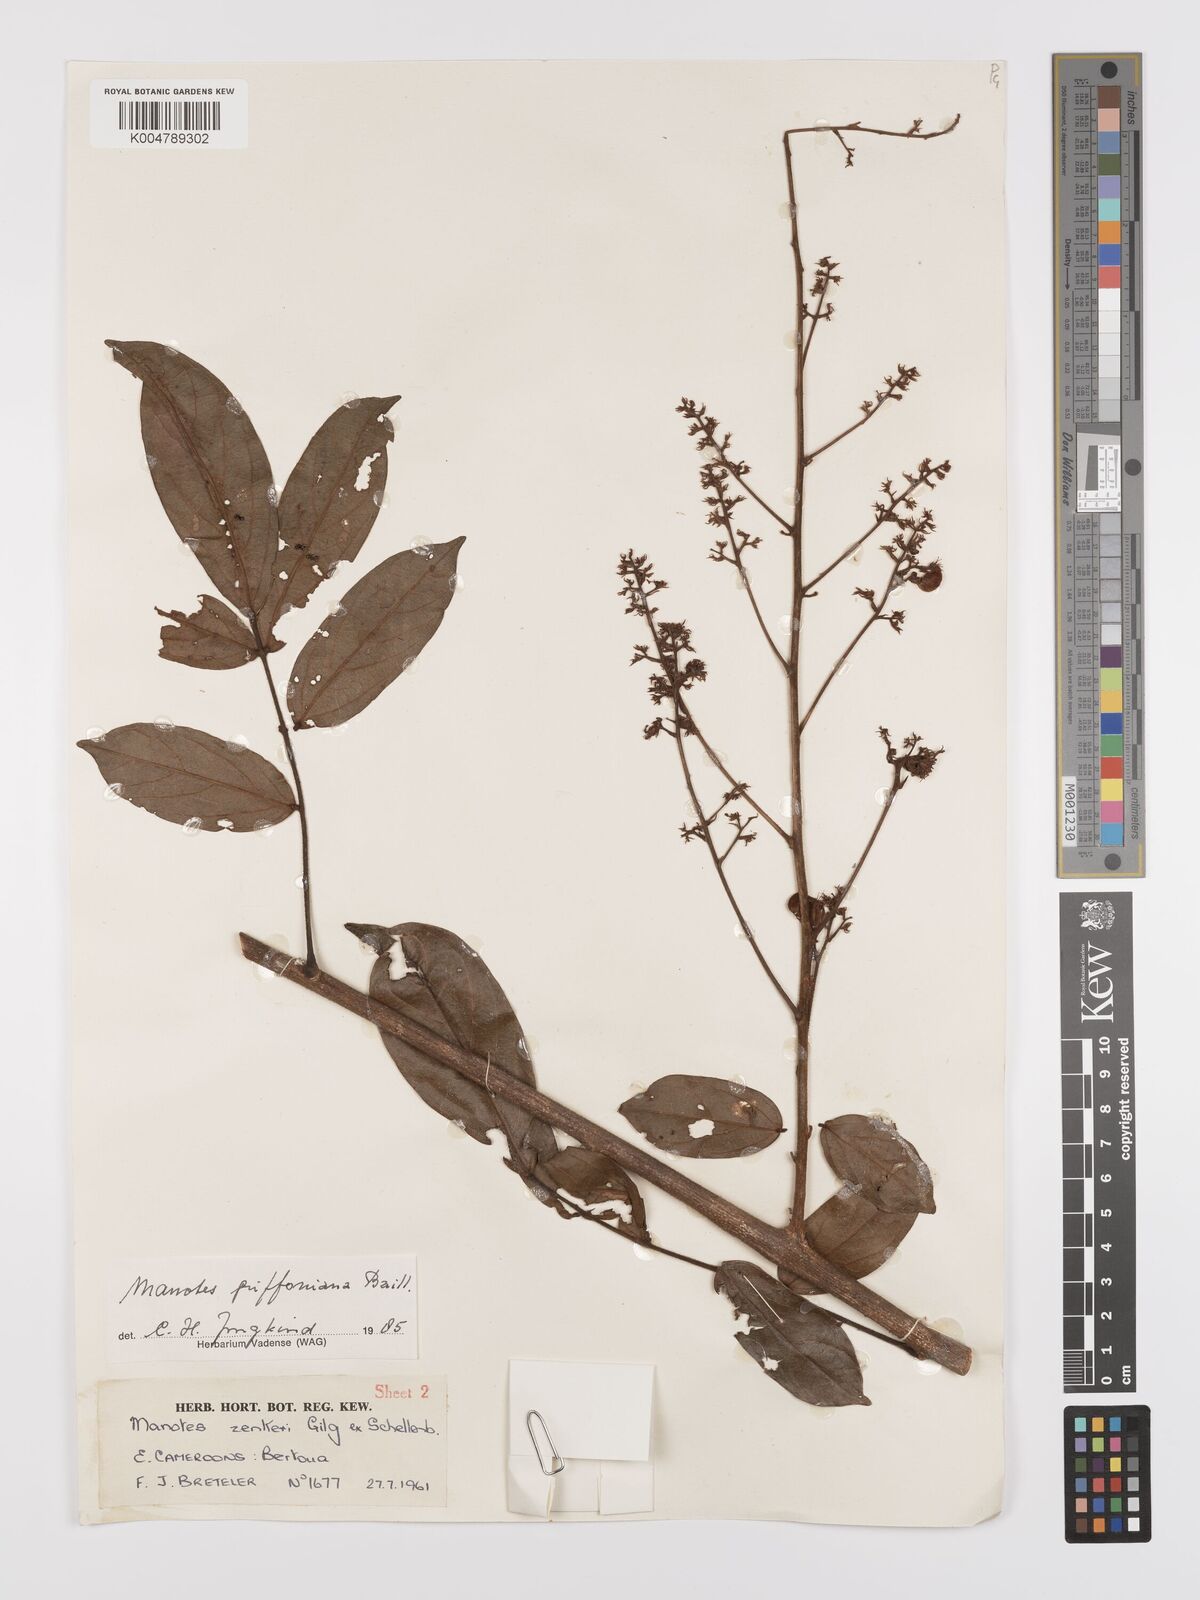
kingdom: Plantae
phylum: Tracheophyta
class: Magnoliopsida
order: Oxalidales
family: Connaraceae
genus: Manotes
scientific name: Manotes griffoniana
